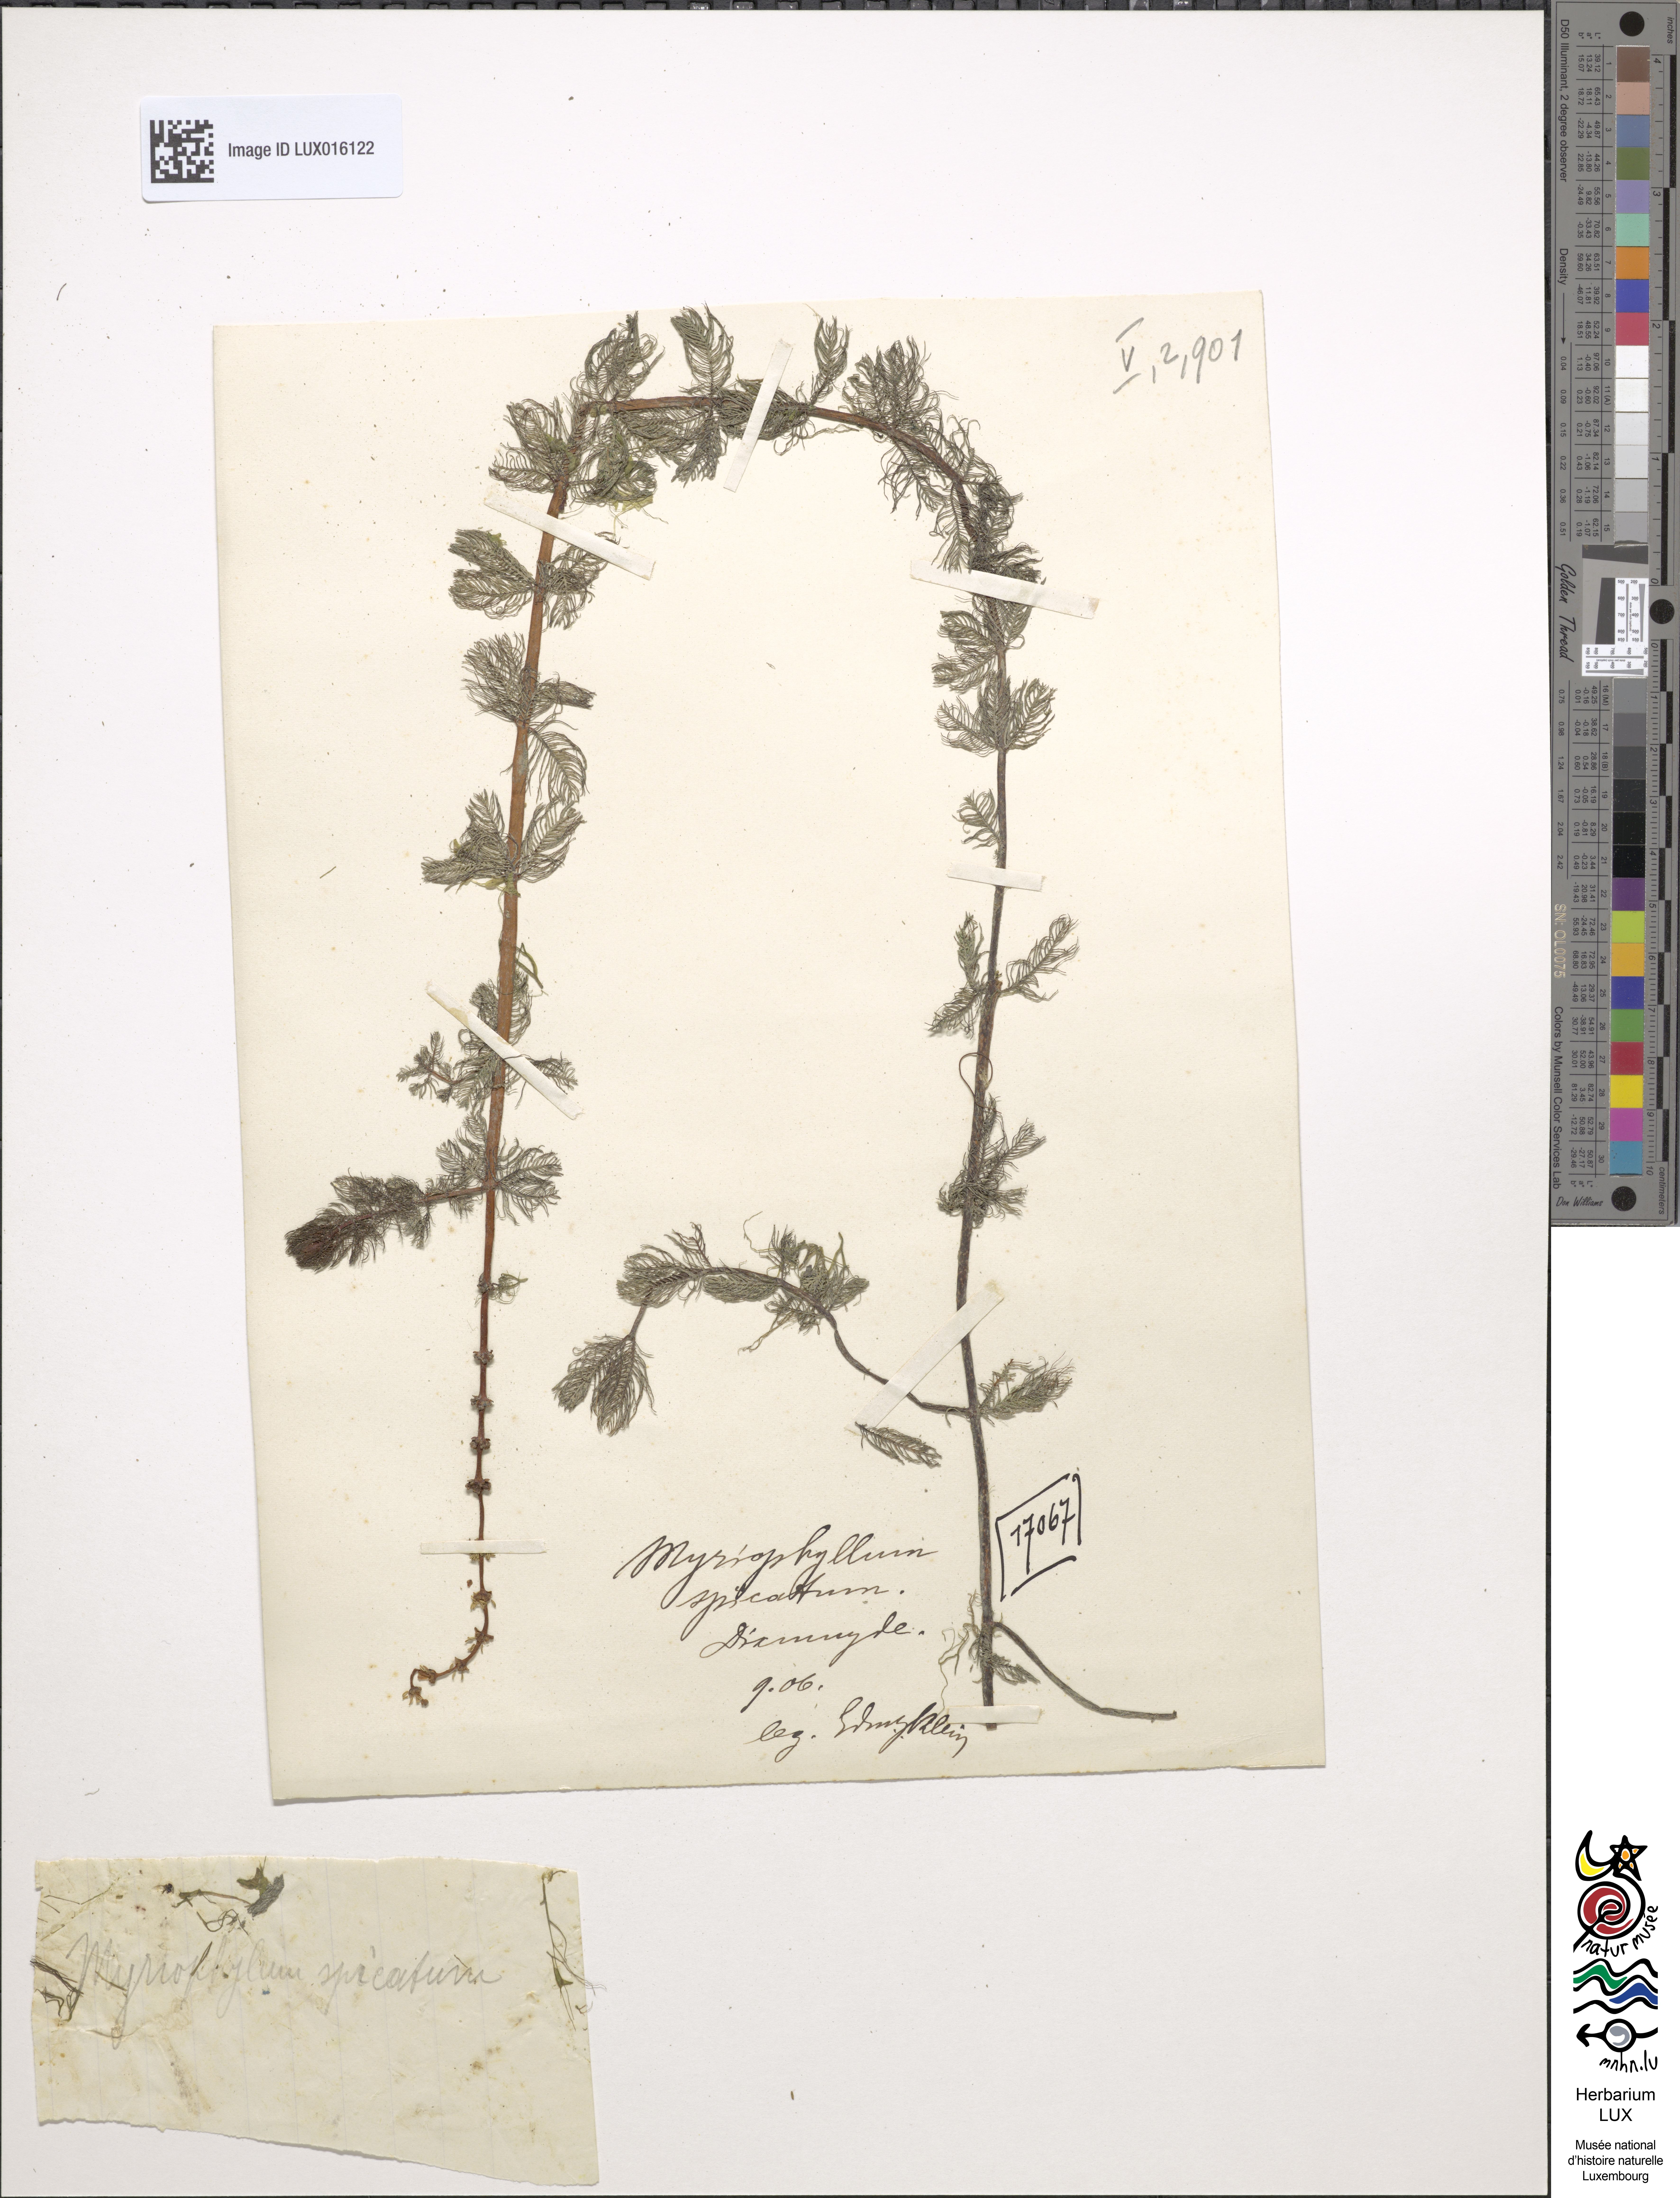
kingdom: Plantae
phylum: Tracheophyta
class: Magnoliopsida
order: Saxifragales
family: Haloragaceae
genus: Myriophyllum
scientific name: Myriophyllum spicatum
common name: Spiked water-milfoil
